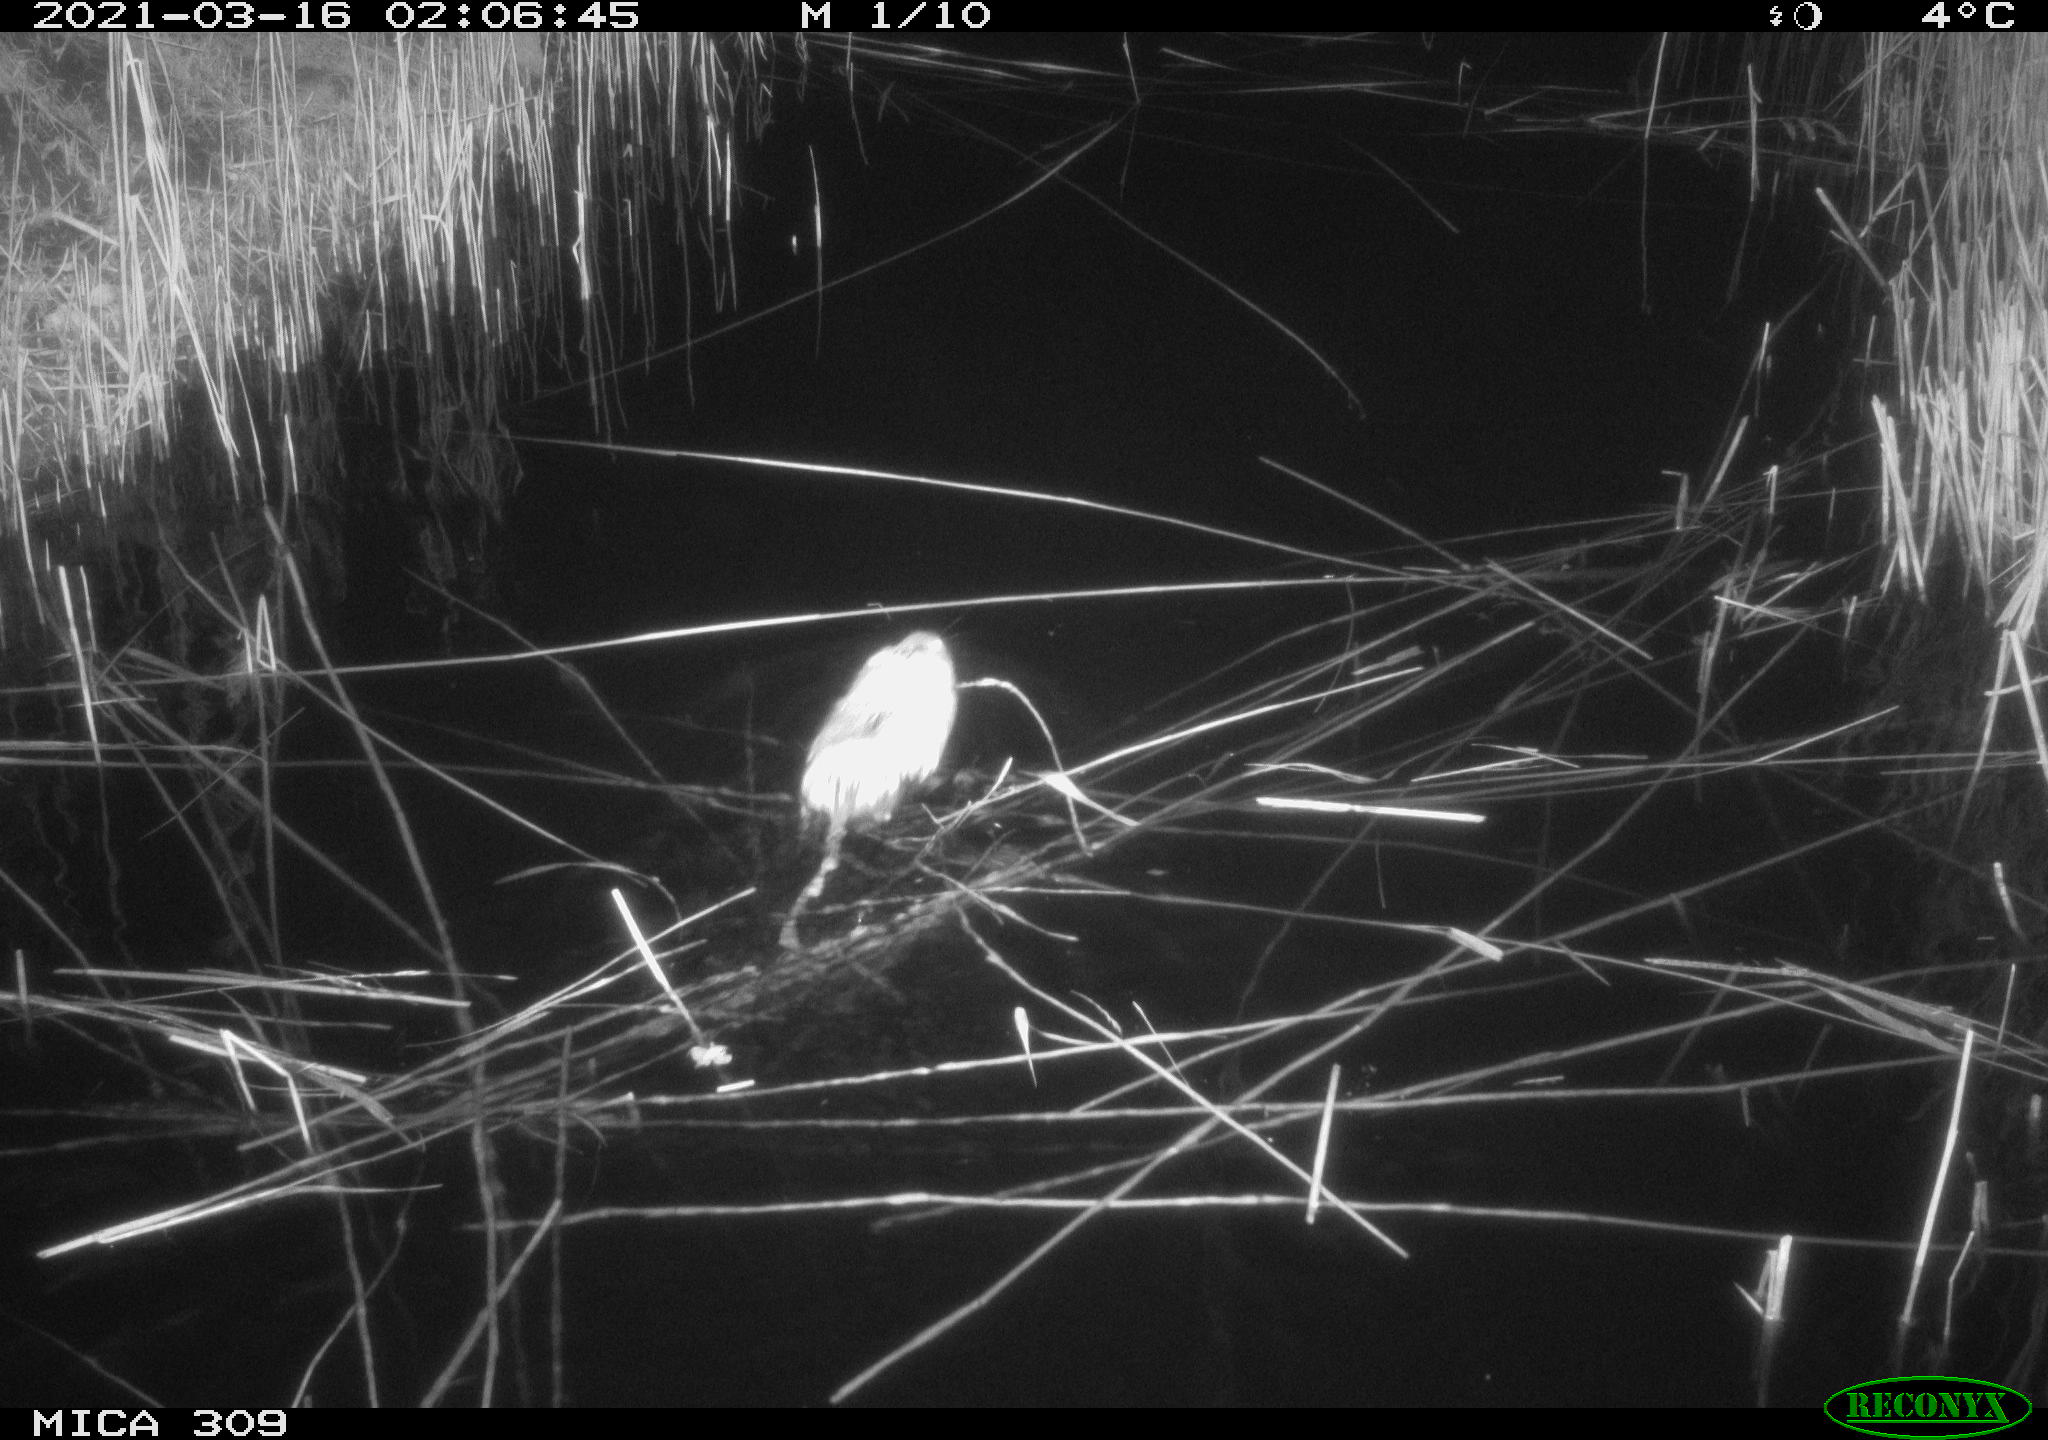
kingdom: Animalia
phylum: Chordata
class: Mammalia
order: Rodentia
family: Cricetidae
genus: Ondatra
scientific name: Ondatra zibethicus
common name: Muskrat
